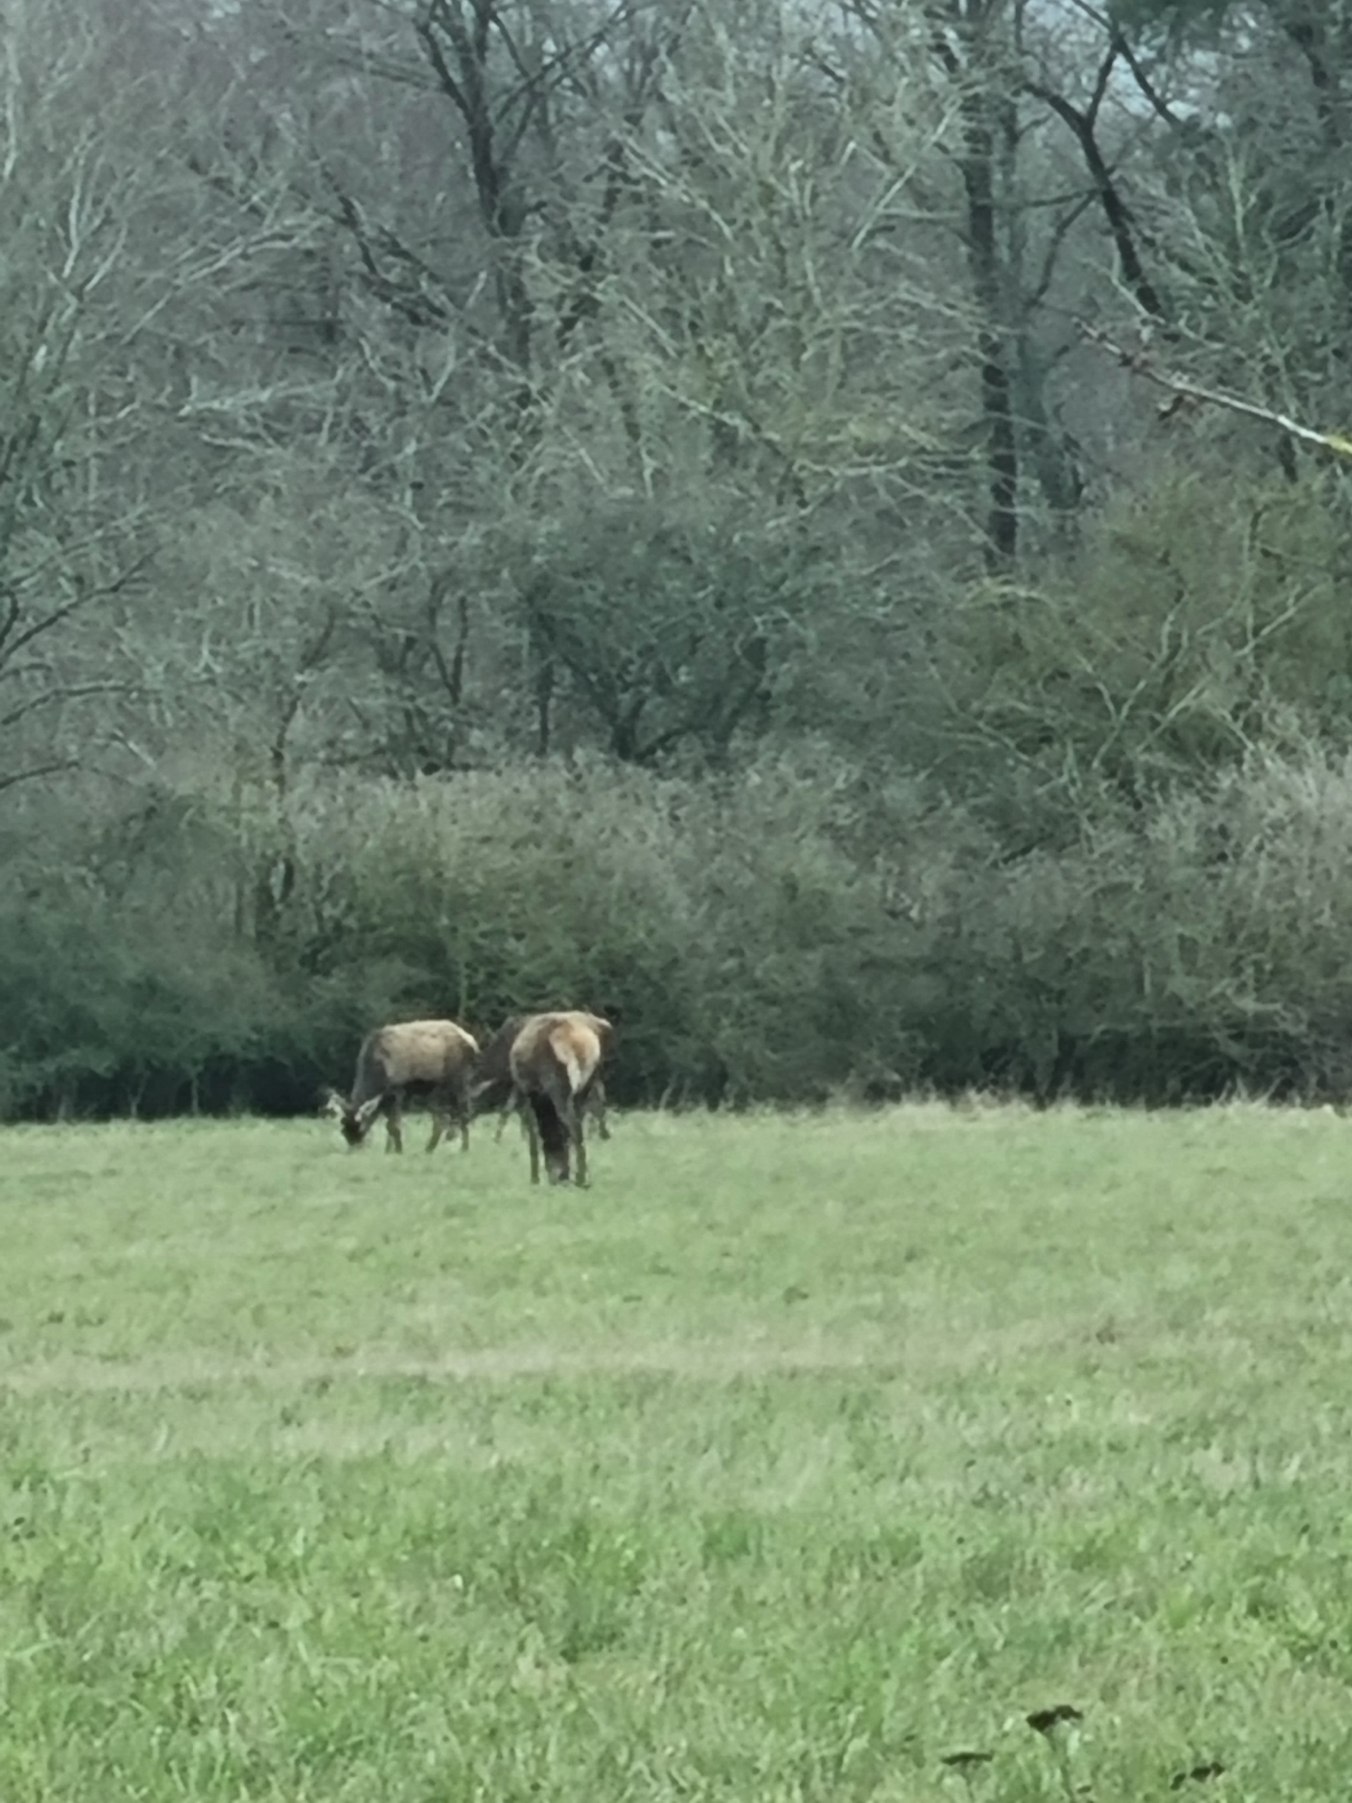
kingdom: Animalia
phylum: Chordata
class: Mammalia
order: Artiodactyla
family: Cervidae
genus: Cervus
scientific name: Cervus elaphus
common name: Krondyr
